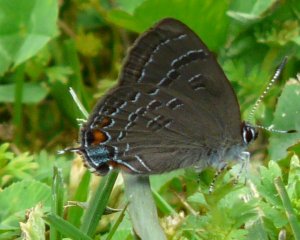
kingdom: Animalia
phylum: Arthropoda
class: Insecta
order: Lepidoptera
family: Lycaenidae
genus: Satyrium
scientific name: Satyrium calanus
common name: Banded Hairstreak
